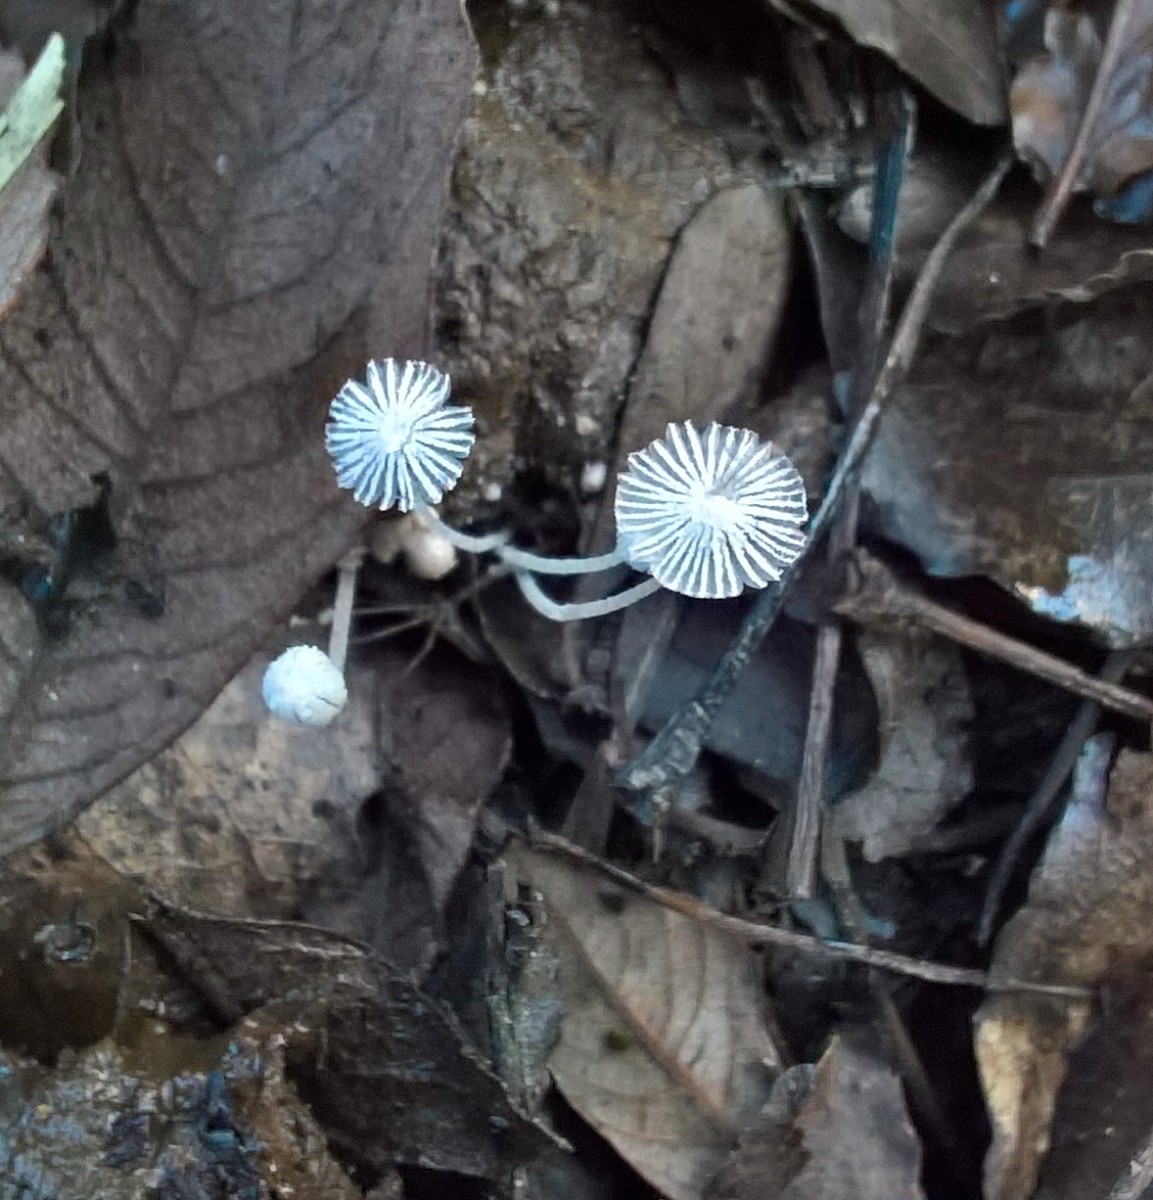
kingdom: Fungi
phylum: Basidiomycota
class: Agaricomycetes
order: Agaricales
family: Psathyrellaceae
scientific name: Psathyrellaceae
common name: mørkhatfamilien
